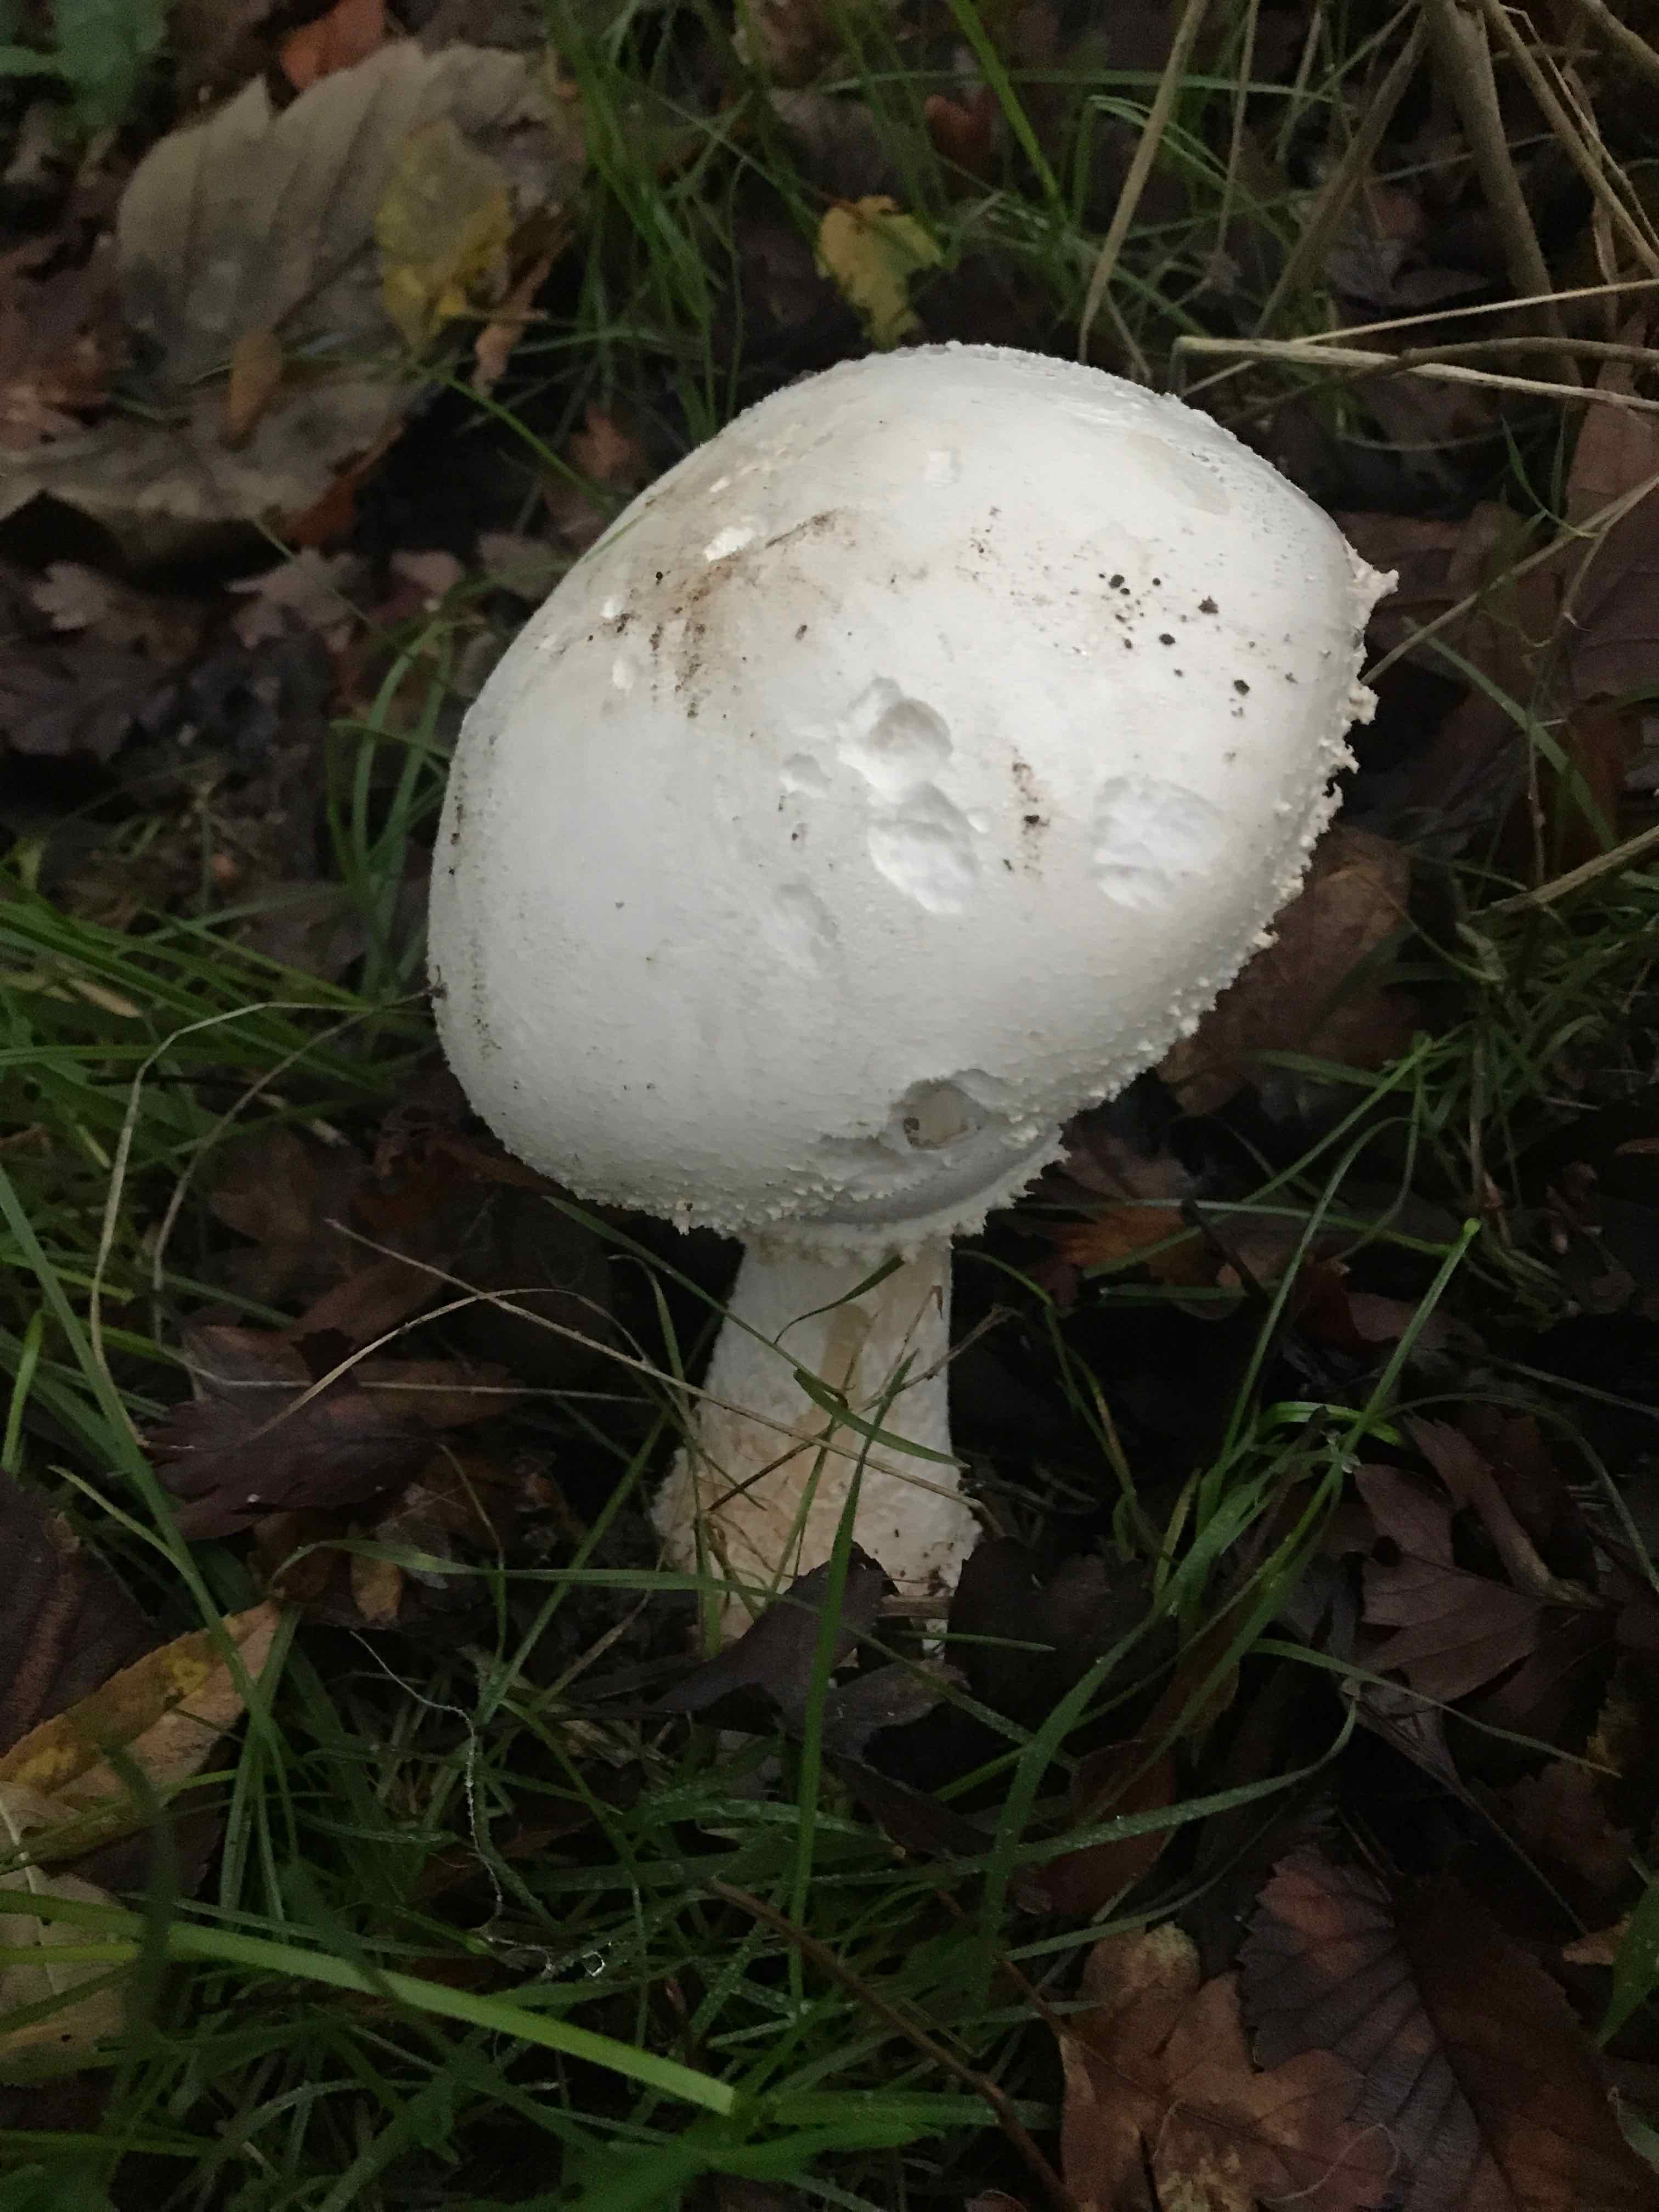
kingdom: Fungi
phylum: Basidiomycota
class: Agaricomycetes
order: Agaricales
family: Agaricaceae
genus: Agaricus
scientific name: Agaricus
